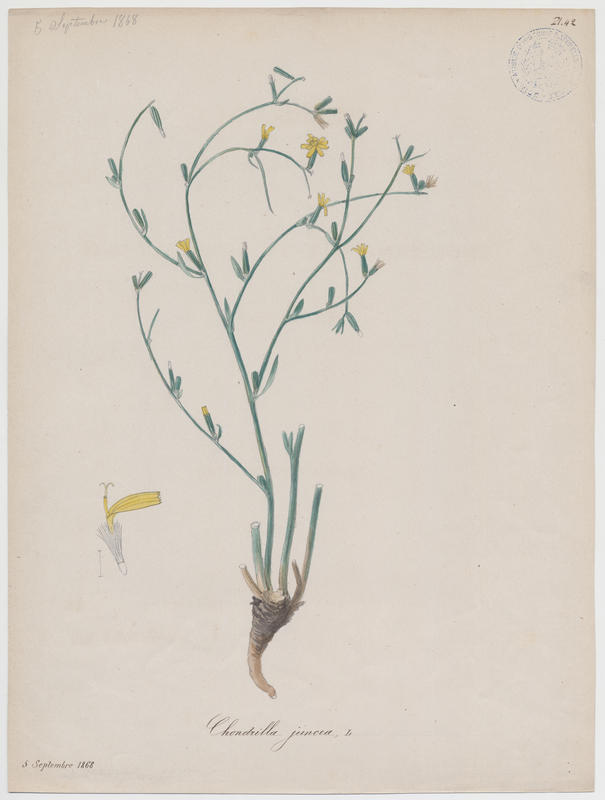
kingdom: Plantae
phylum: Tracheophyta
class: Magnoliopsida
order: Asterales
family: Asteraceae
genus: Chondrilla
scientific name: Chondrilla juncea
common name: Skeleton weed
